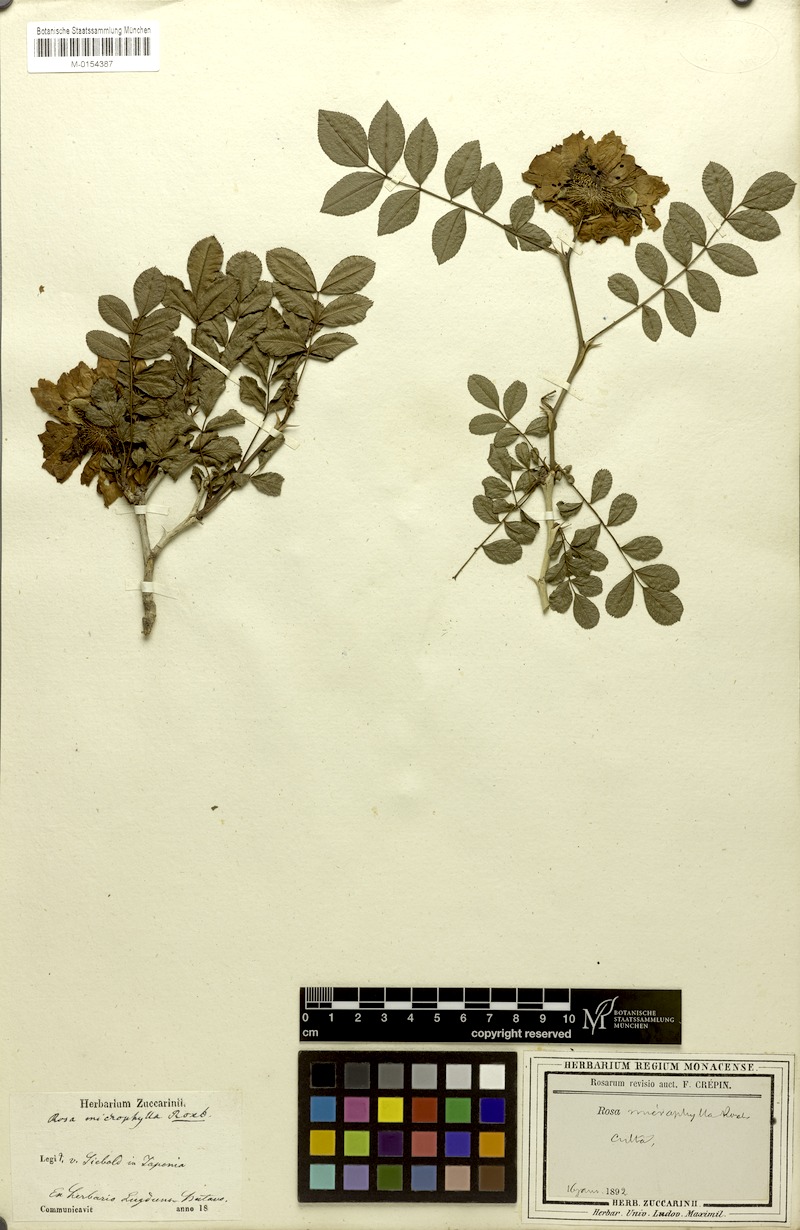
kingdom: Plantae
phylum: Tracheophyta
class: Magnoliopsida
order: Rosales
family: Rosaceae
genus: Rosa
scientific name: Rosa roxburghii
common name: Chinquapin rose
